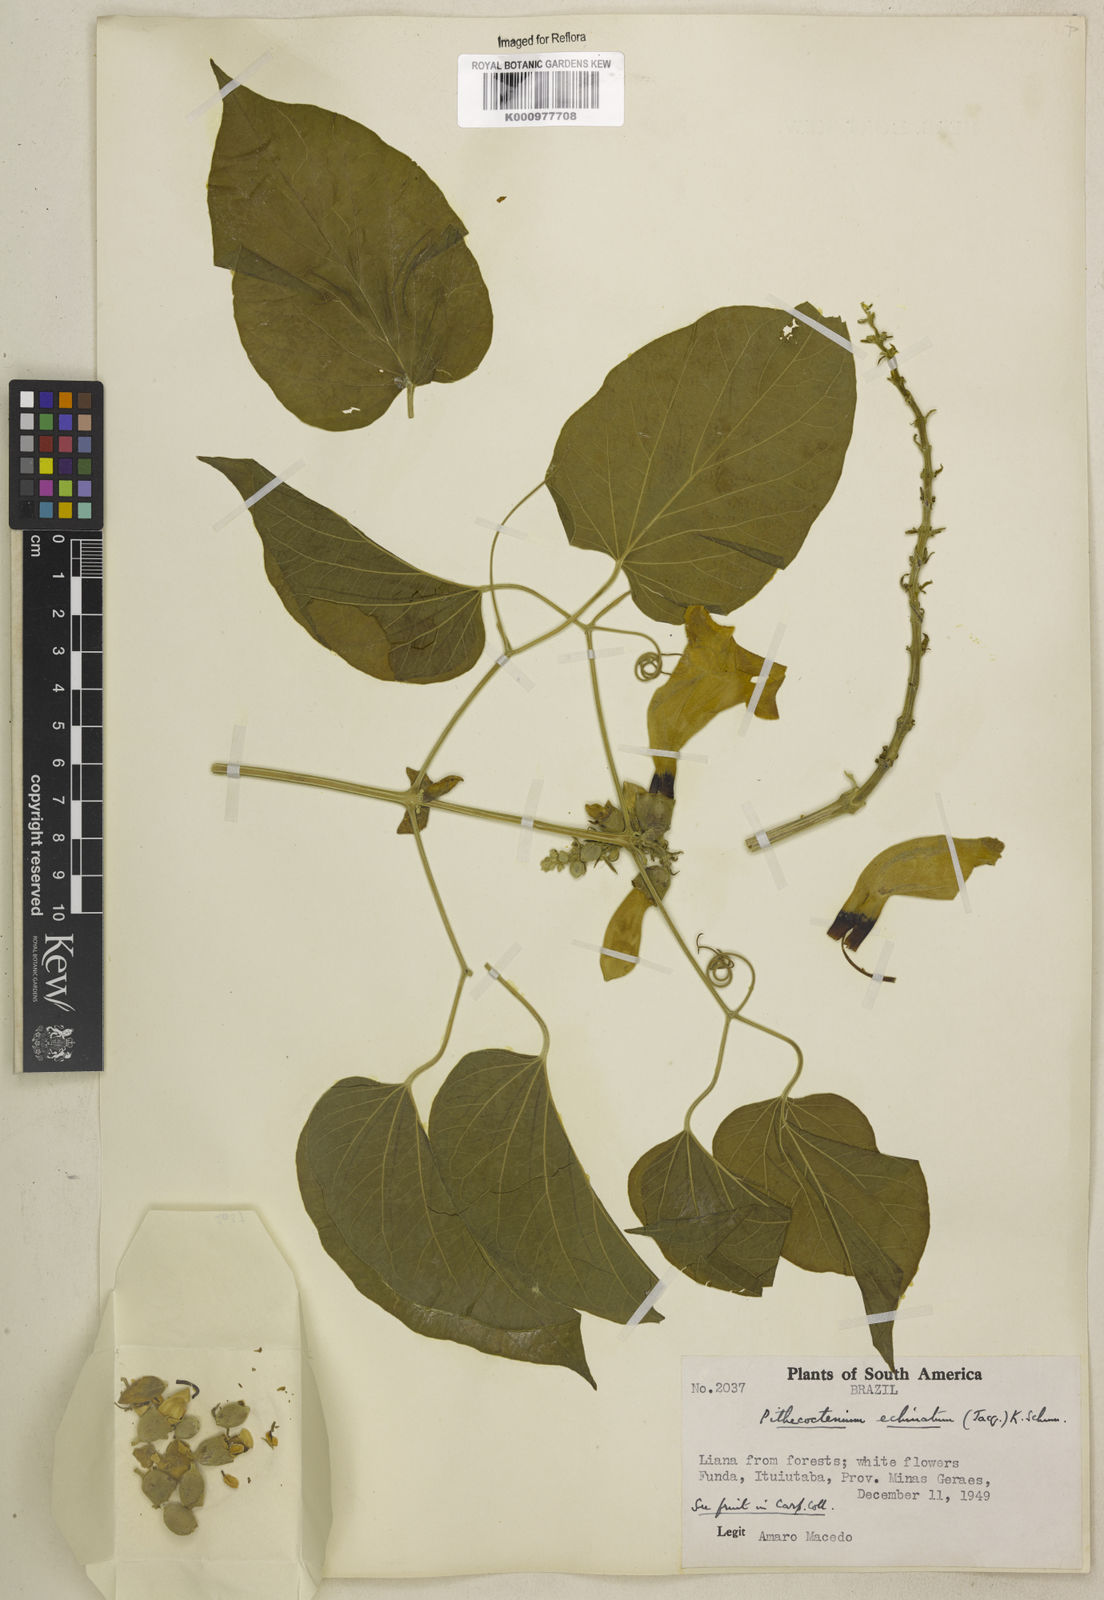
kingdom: Plantae
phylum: Tracheophyta
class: Magnoliopsida
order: Lamiales
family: Bignoniaceae
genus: Amphilophium
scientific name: Amphilophium crucigerum
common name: Monkey comb
